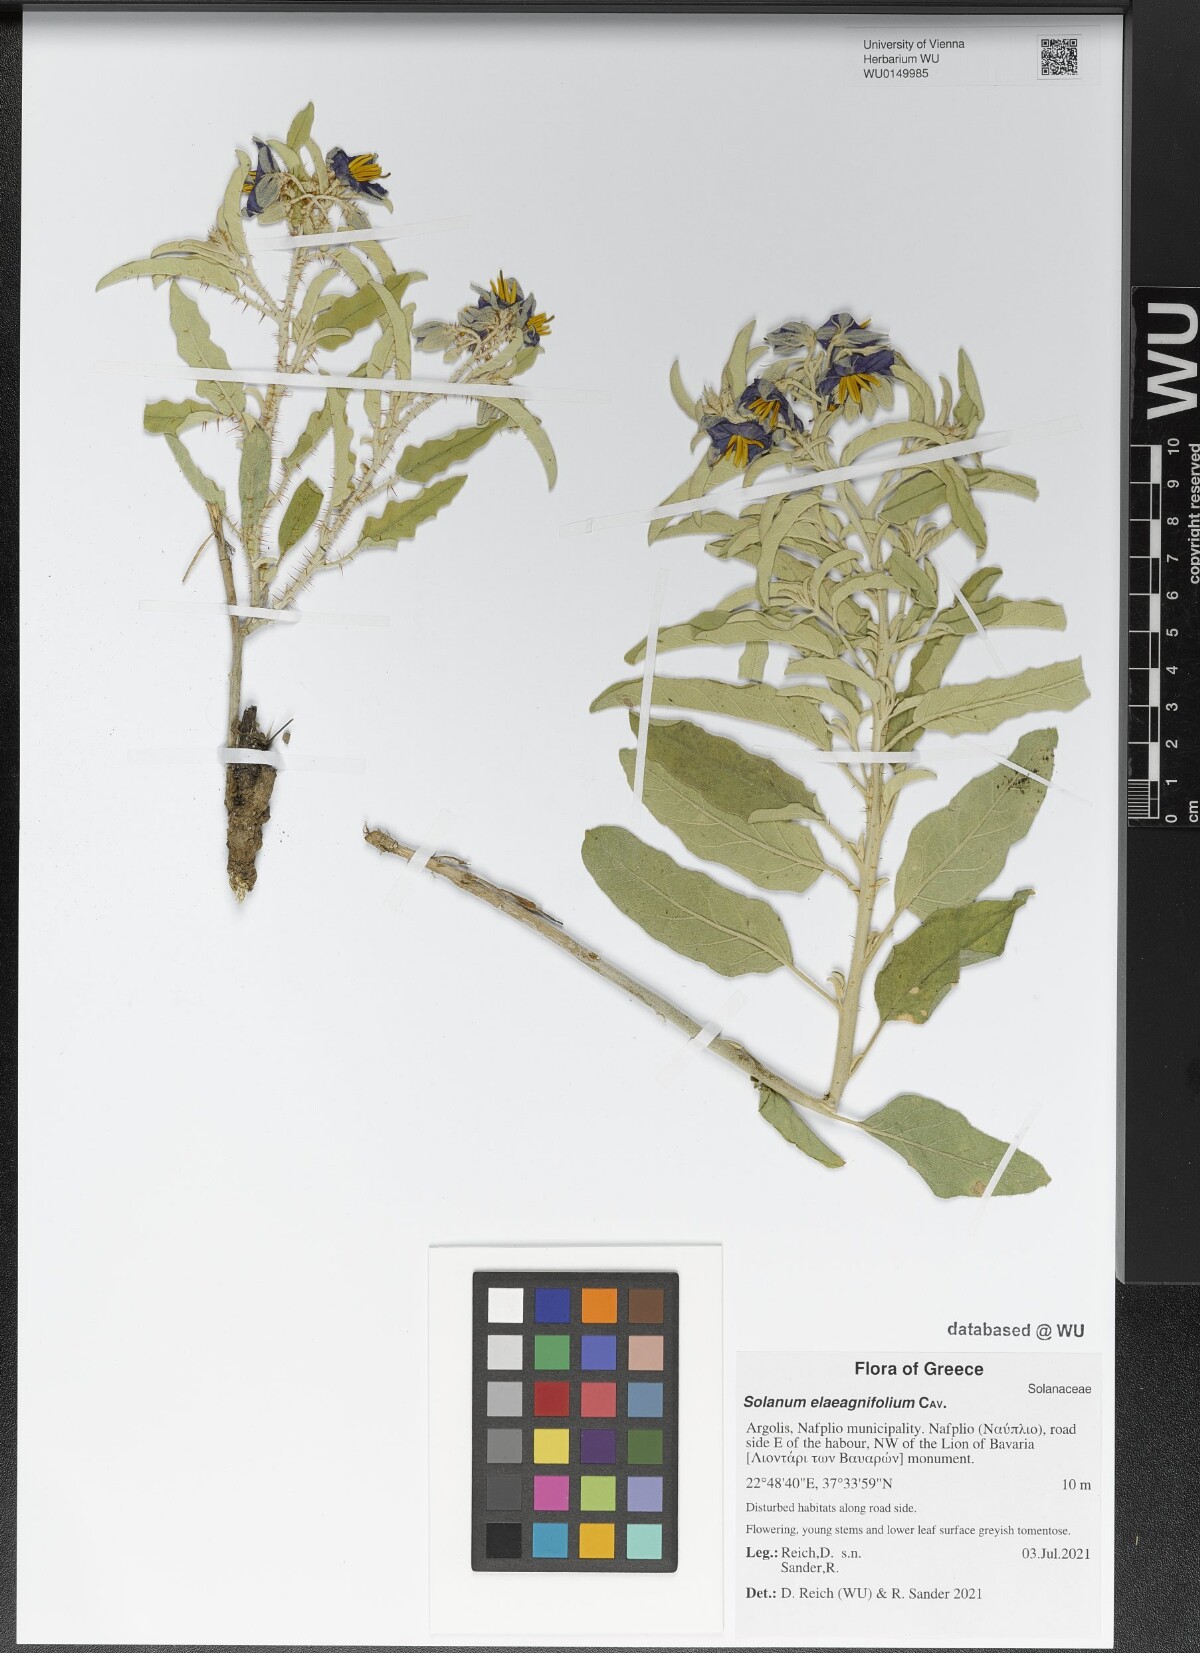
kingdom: Plantae
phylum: Tracheophyta
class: Magnoliopsida
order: Solanales
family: Solanaceae
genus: Solanum
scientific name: Solanum elaeagnifolium
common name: Silverleaf nightshade
